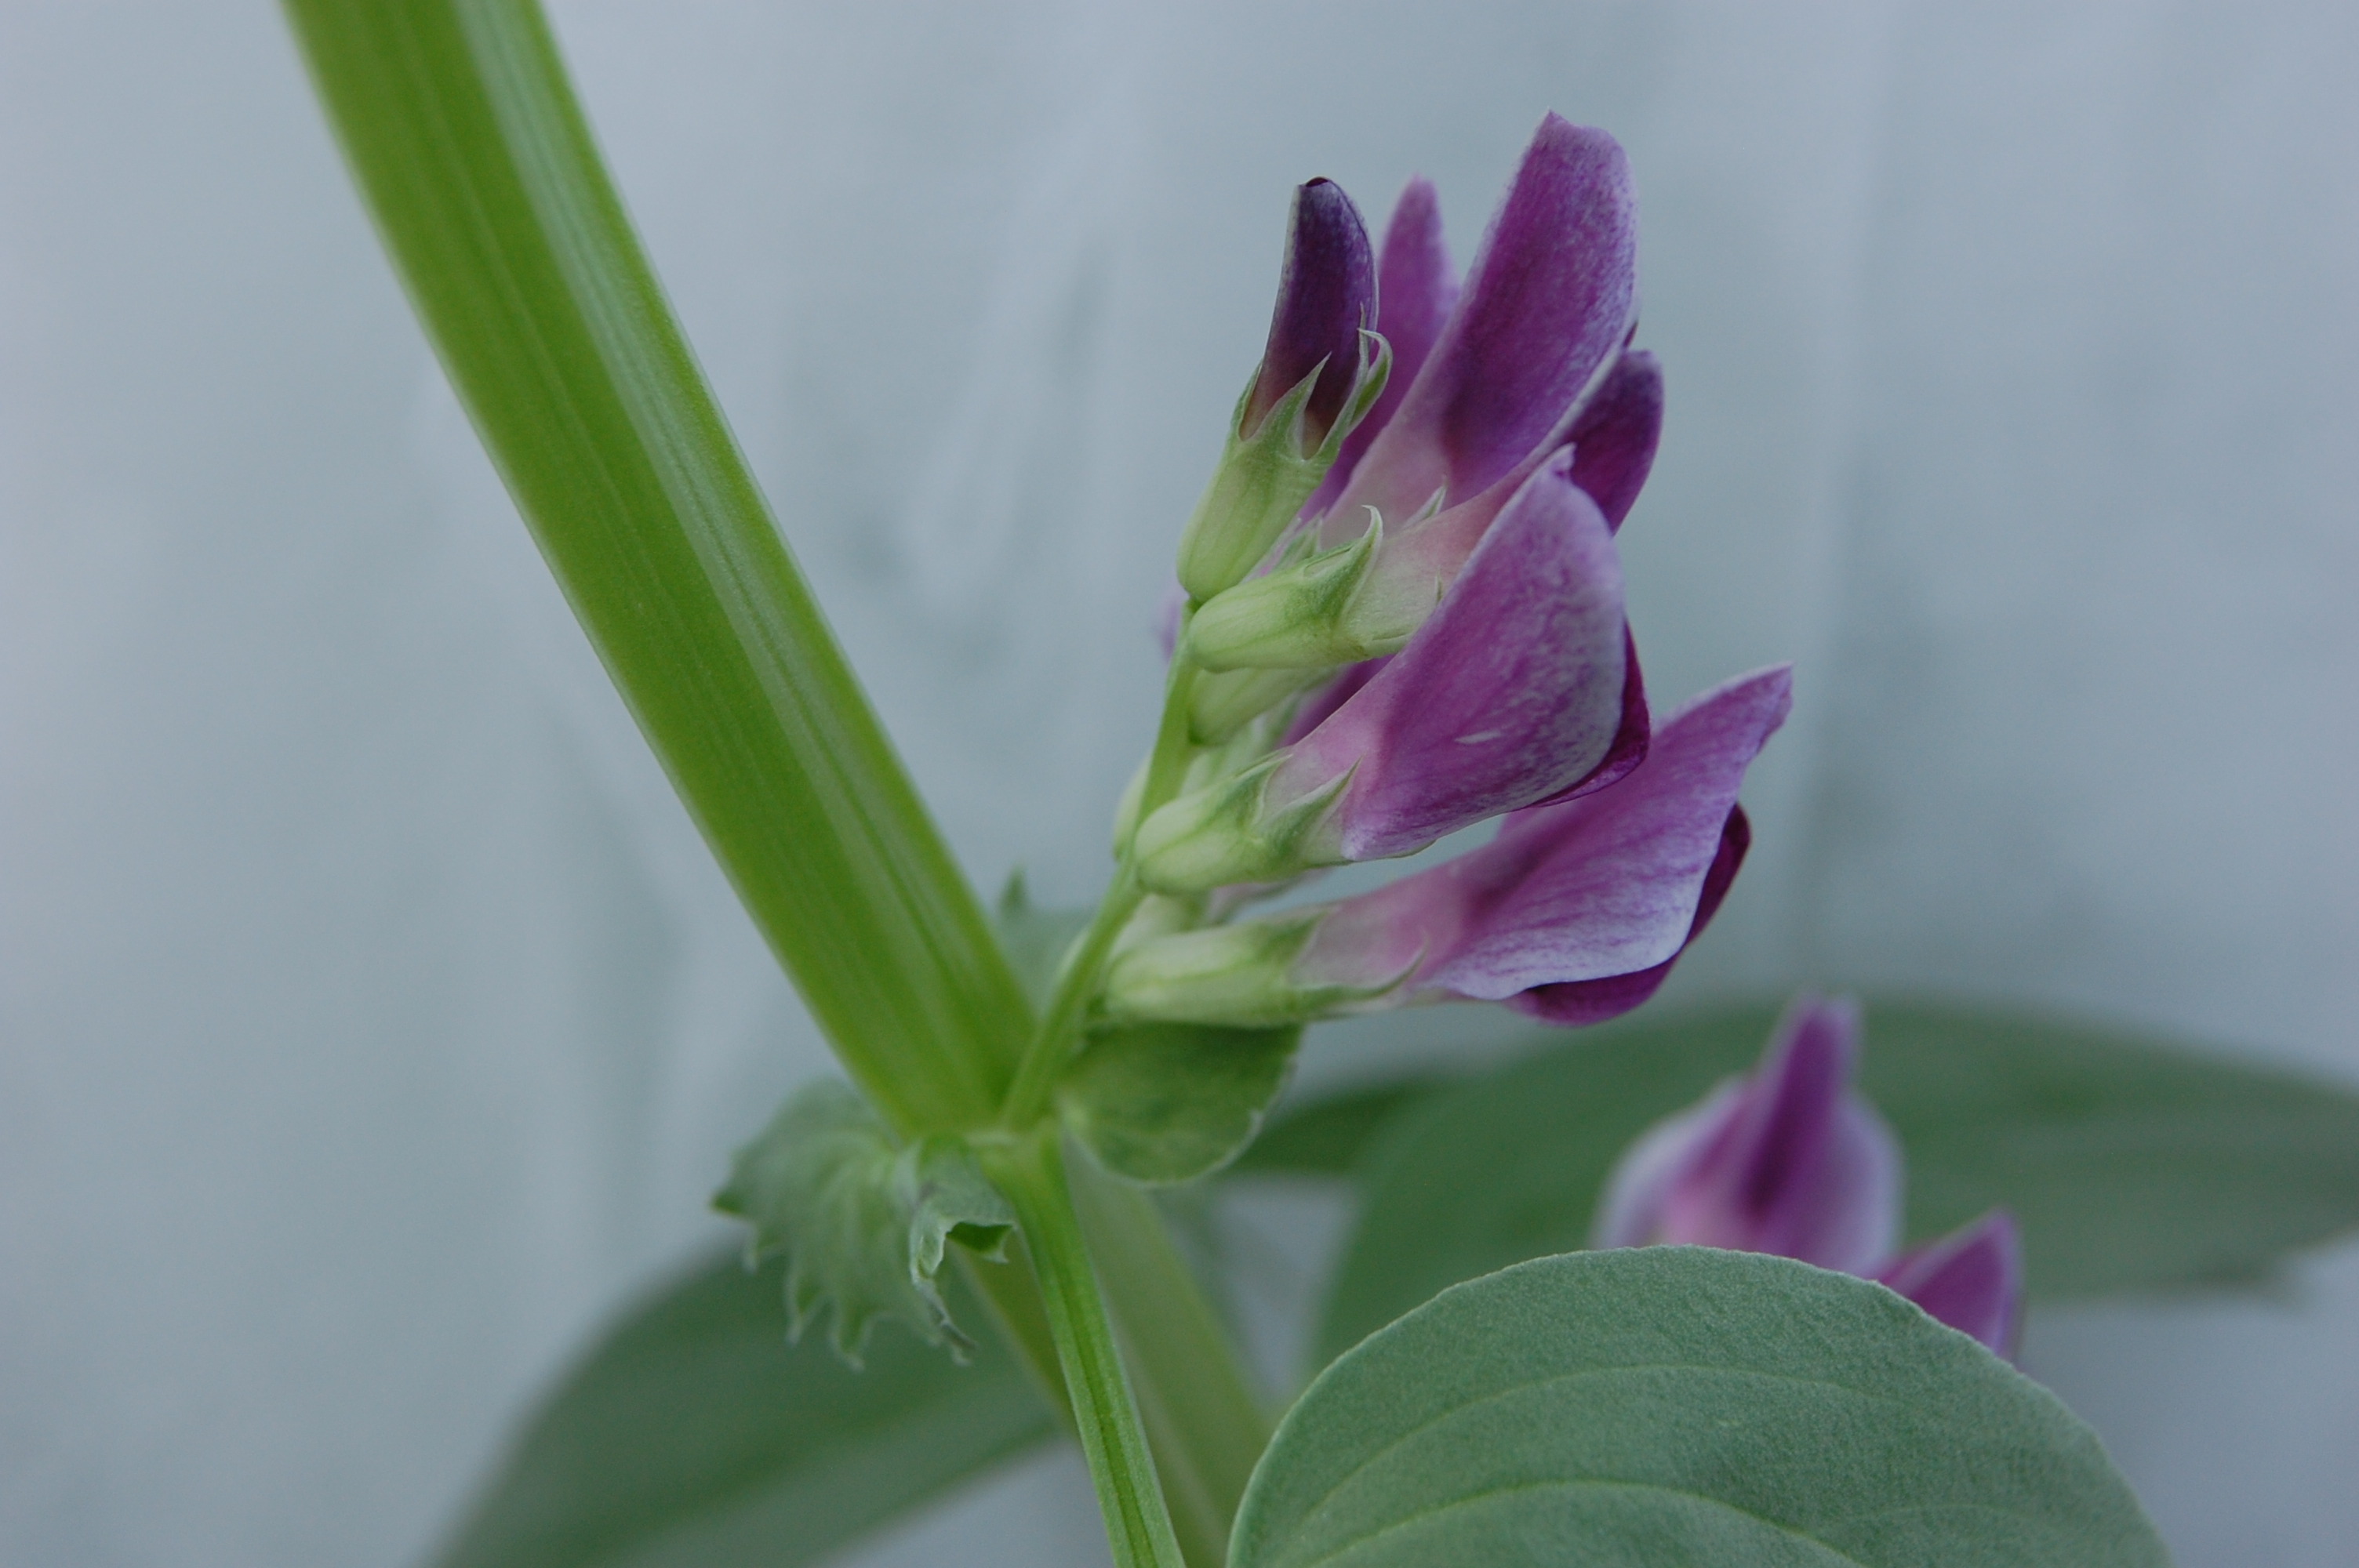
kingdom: Plantae
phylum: Tracheophyta
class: Magnoliopsida
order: Fabales
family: Fabaceae
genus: Vicia
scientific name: Vicia faba
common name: Broad bean
